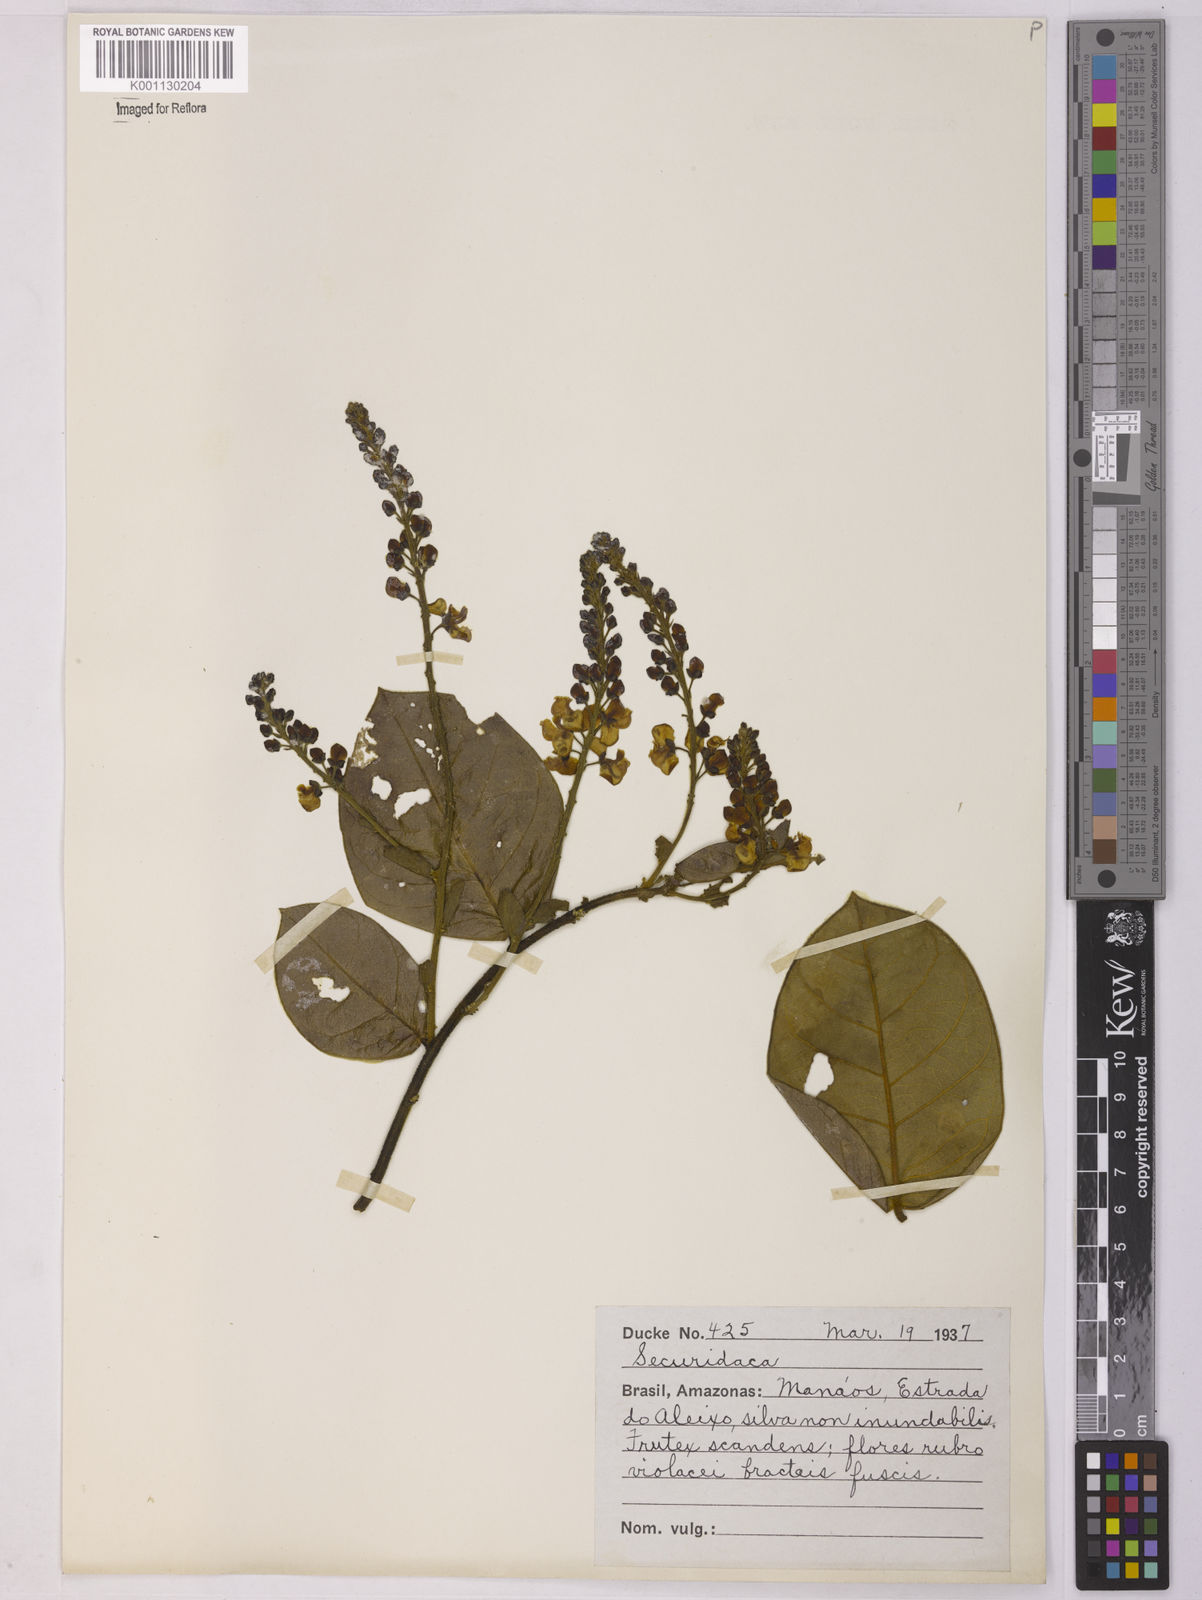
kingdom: Plantae
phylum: Tracheophyta
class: Magnoliopsida
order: Fabales
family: Polygalaceae
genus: Securidaca
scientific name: Securidaca
